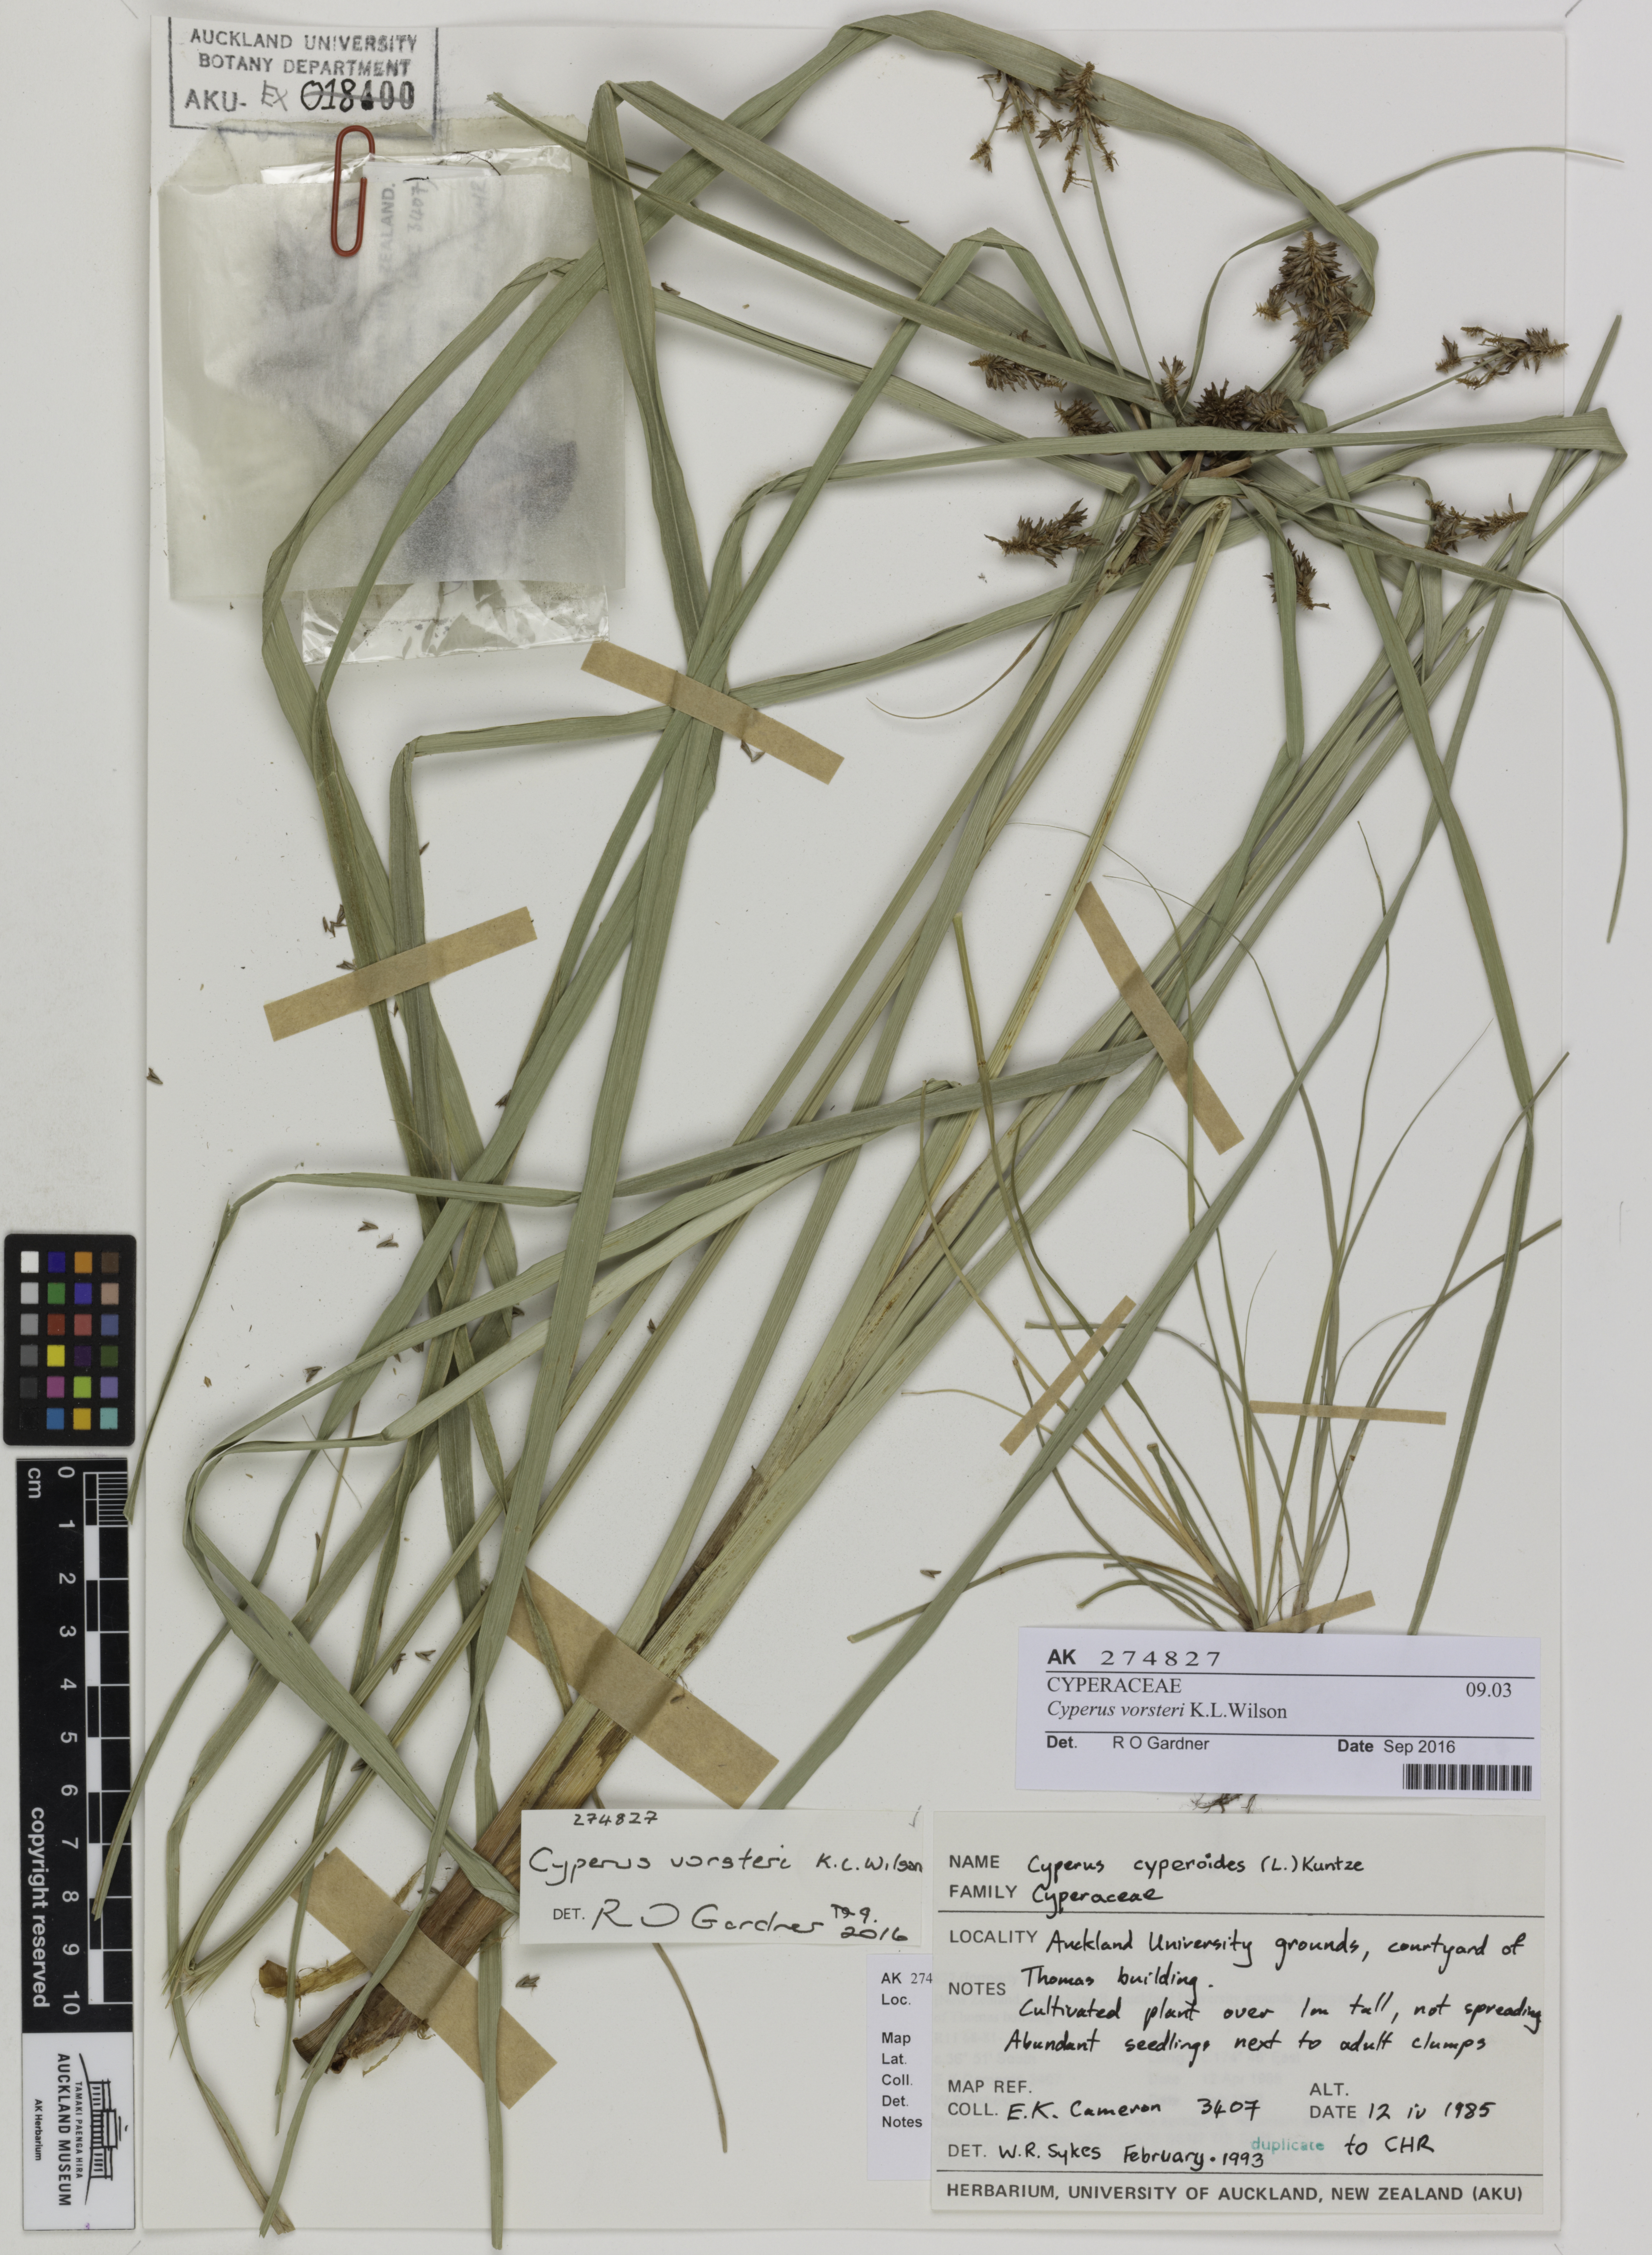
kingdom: Plantae
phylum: Tracheophyta
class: Liliopsida
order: Poales
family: Cyperaceae
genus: Cyperus
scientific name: Cyperus vorsteri
